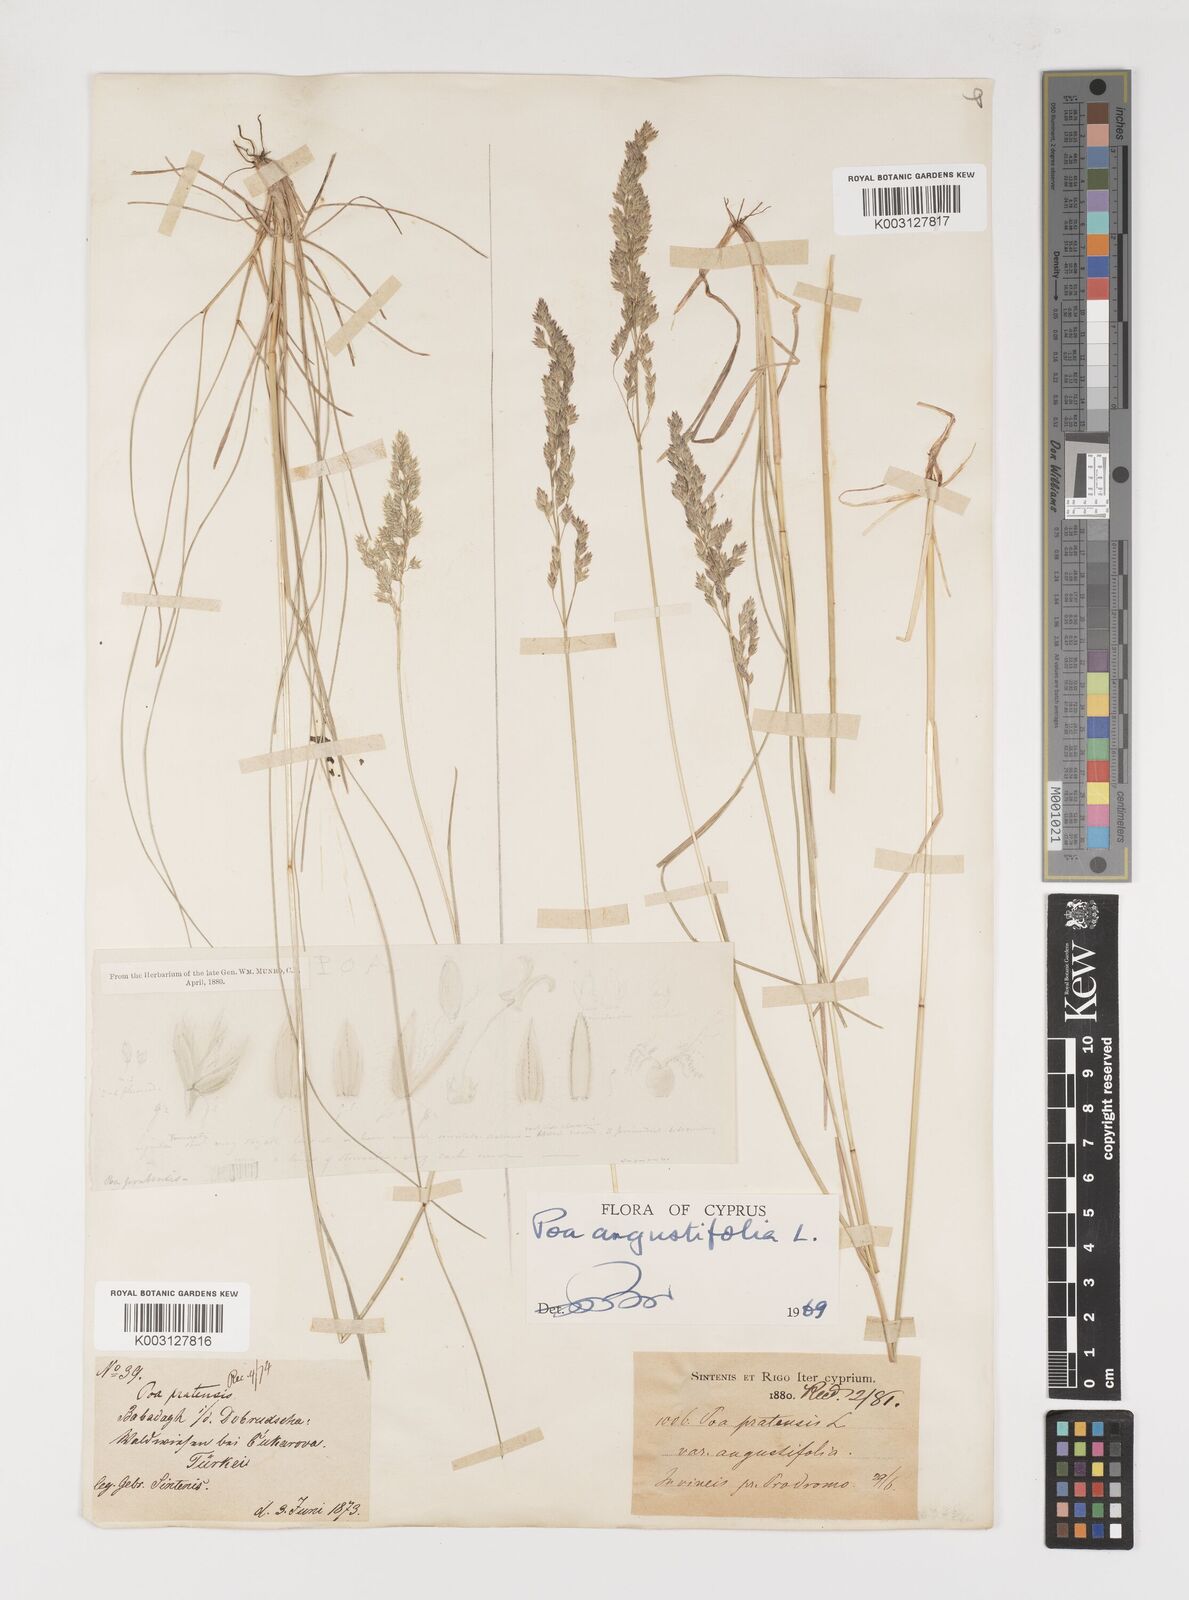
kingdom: Plantae
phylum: Tracheophyta
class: Liliopsida
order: Poales
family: Poaceae
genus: Poa
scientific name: Poa angustifolia
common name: Narrow-leaved meadow-grass
